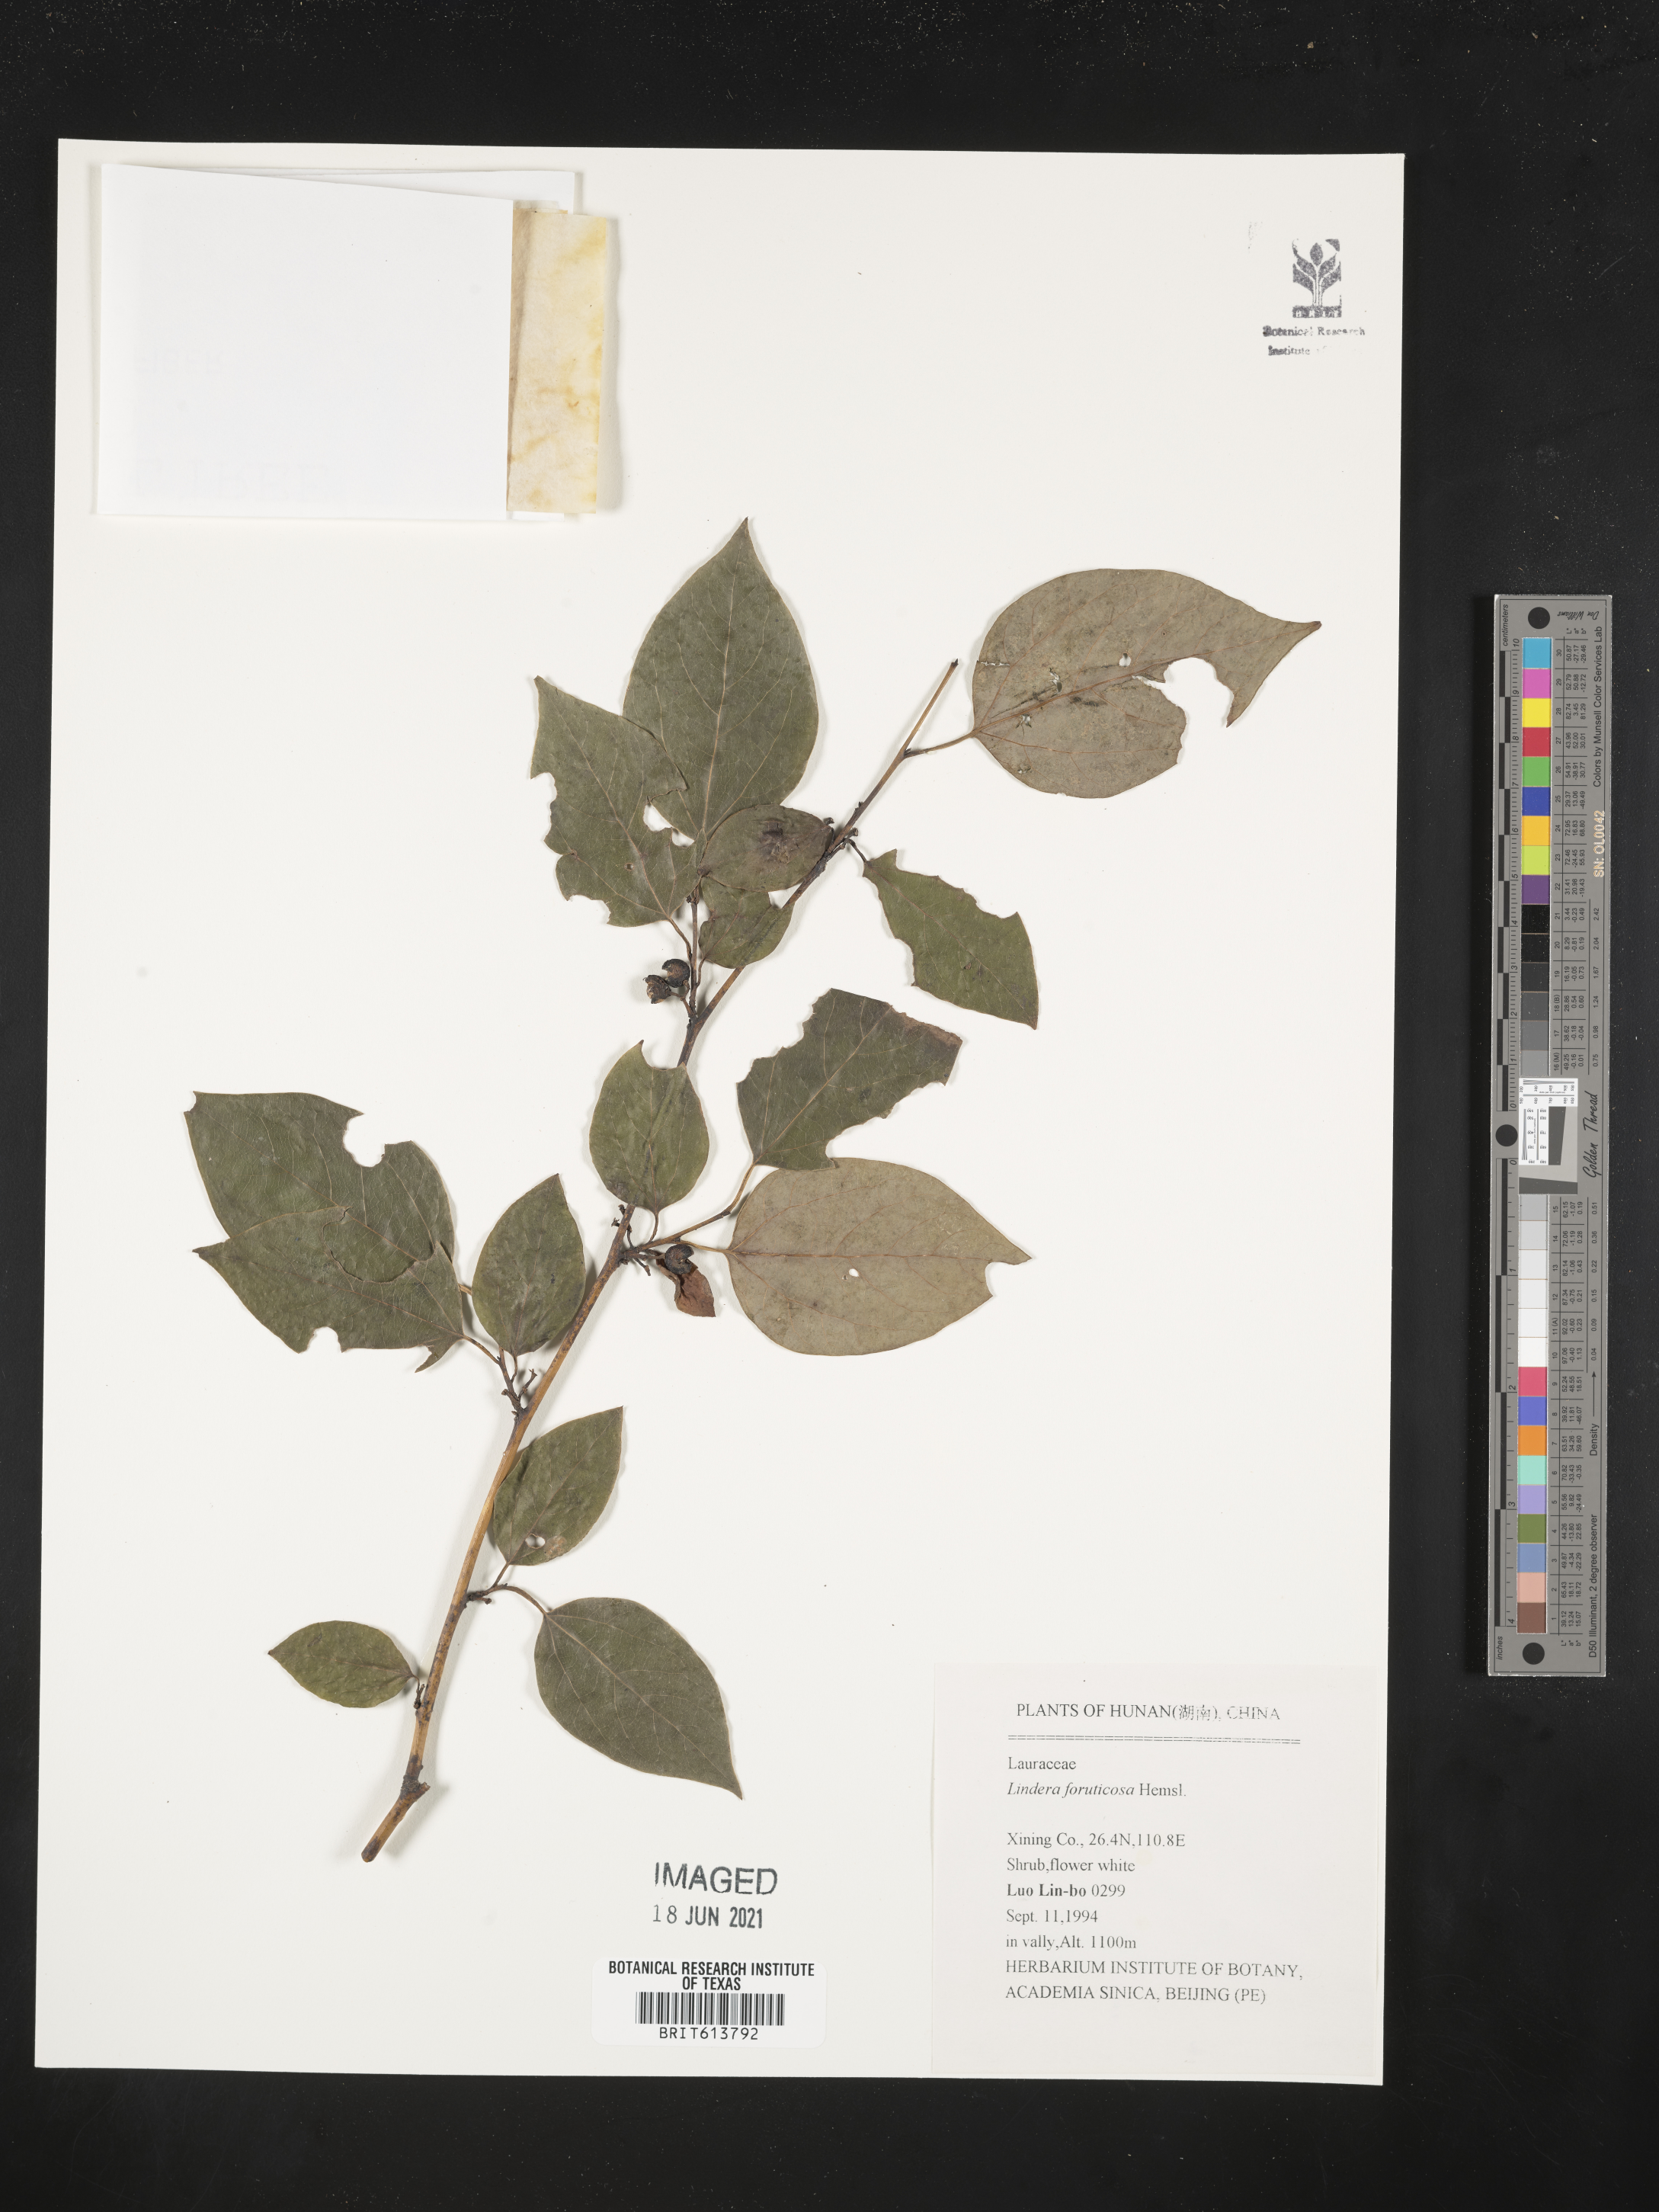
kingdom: Plantae
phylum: Tracheophyta
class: Magnoliopsida
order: Laurales
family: Lauraceae
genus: Lindera
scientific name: Lindera neesiana
